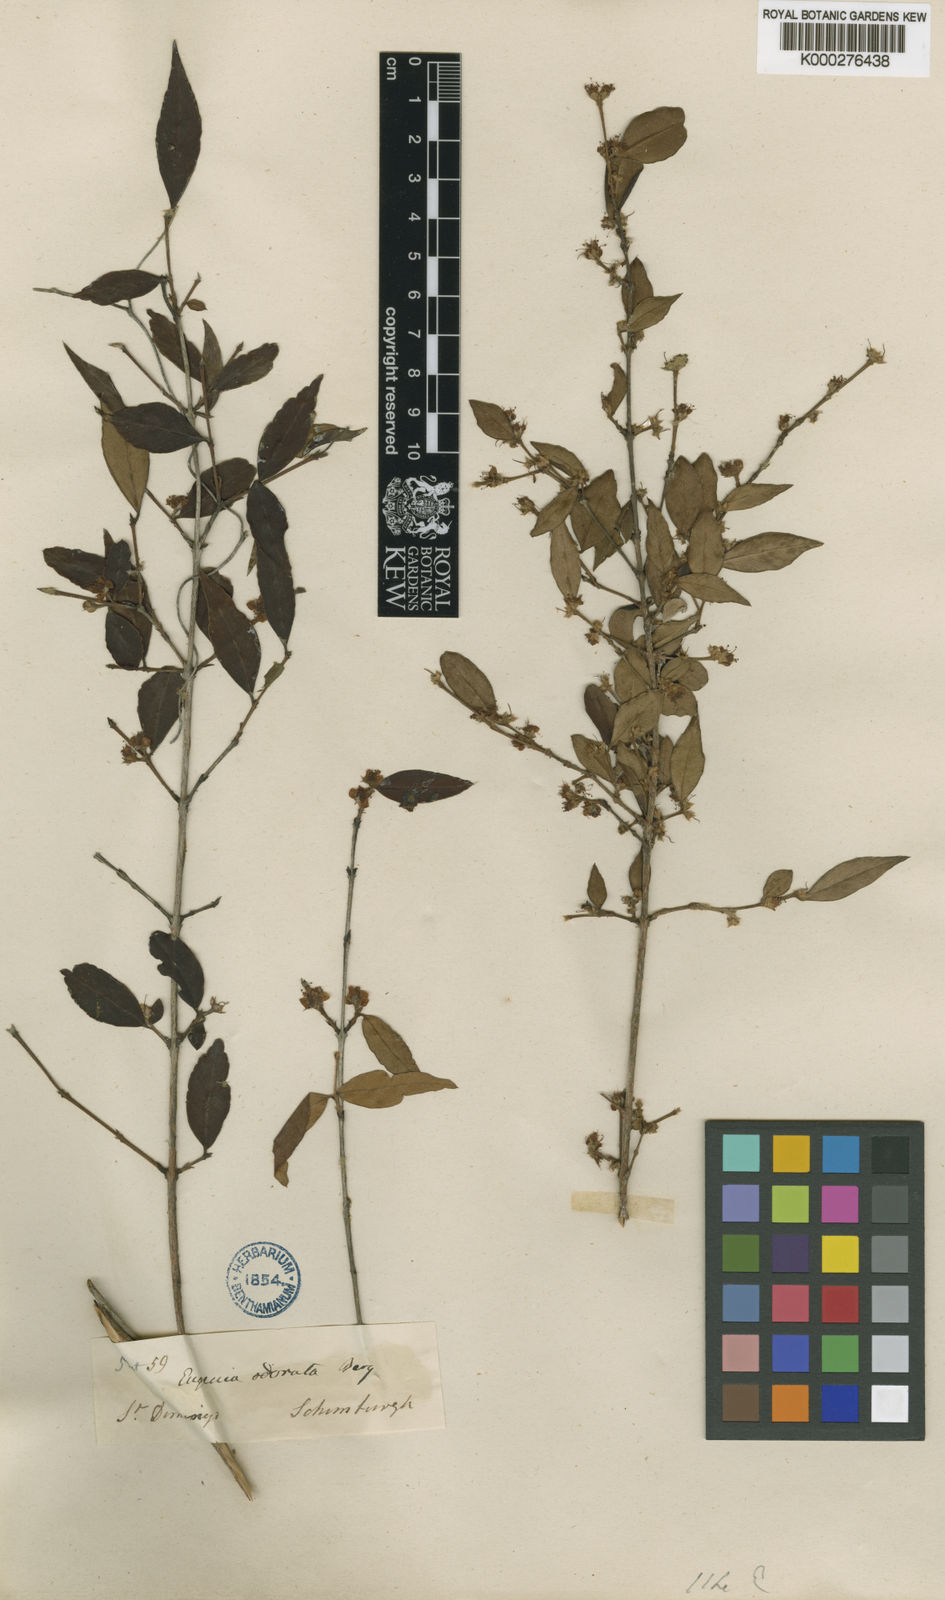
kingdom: Plantae
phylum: Tracheophyta
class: Magnoliopsida
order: Myrtales
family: Myrtaceae
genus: Eugenia
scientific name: Eugenia isabeliana
